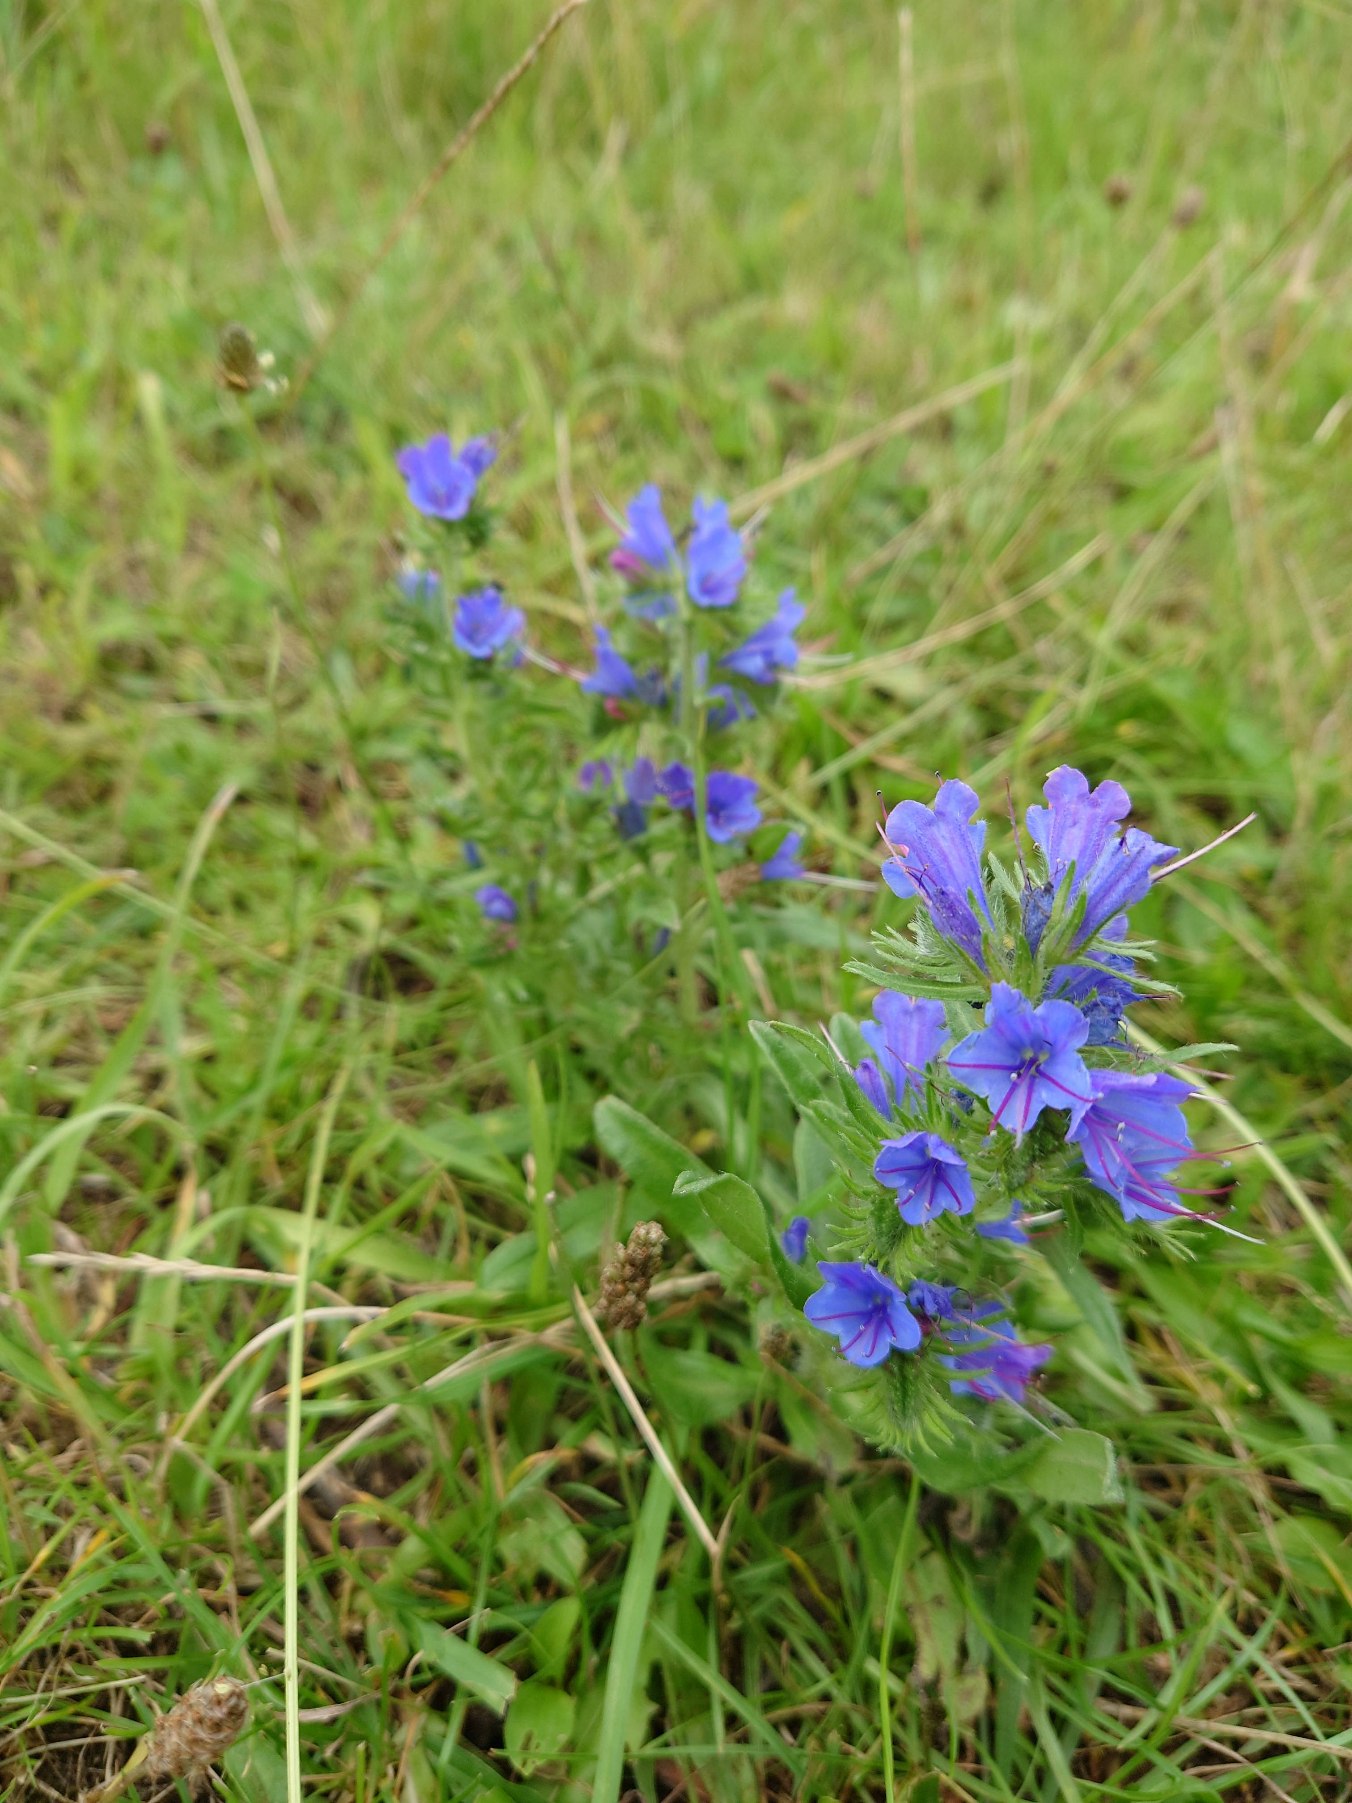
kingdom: Plantae
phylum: Tracheophyta
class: Magnoliopsida
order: Boraginales
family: Boraginaceae
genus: Echium
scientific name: Echium vulgare
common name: Slangehoved
